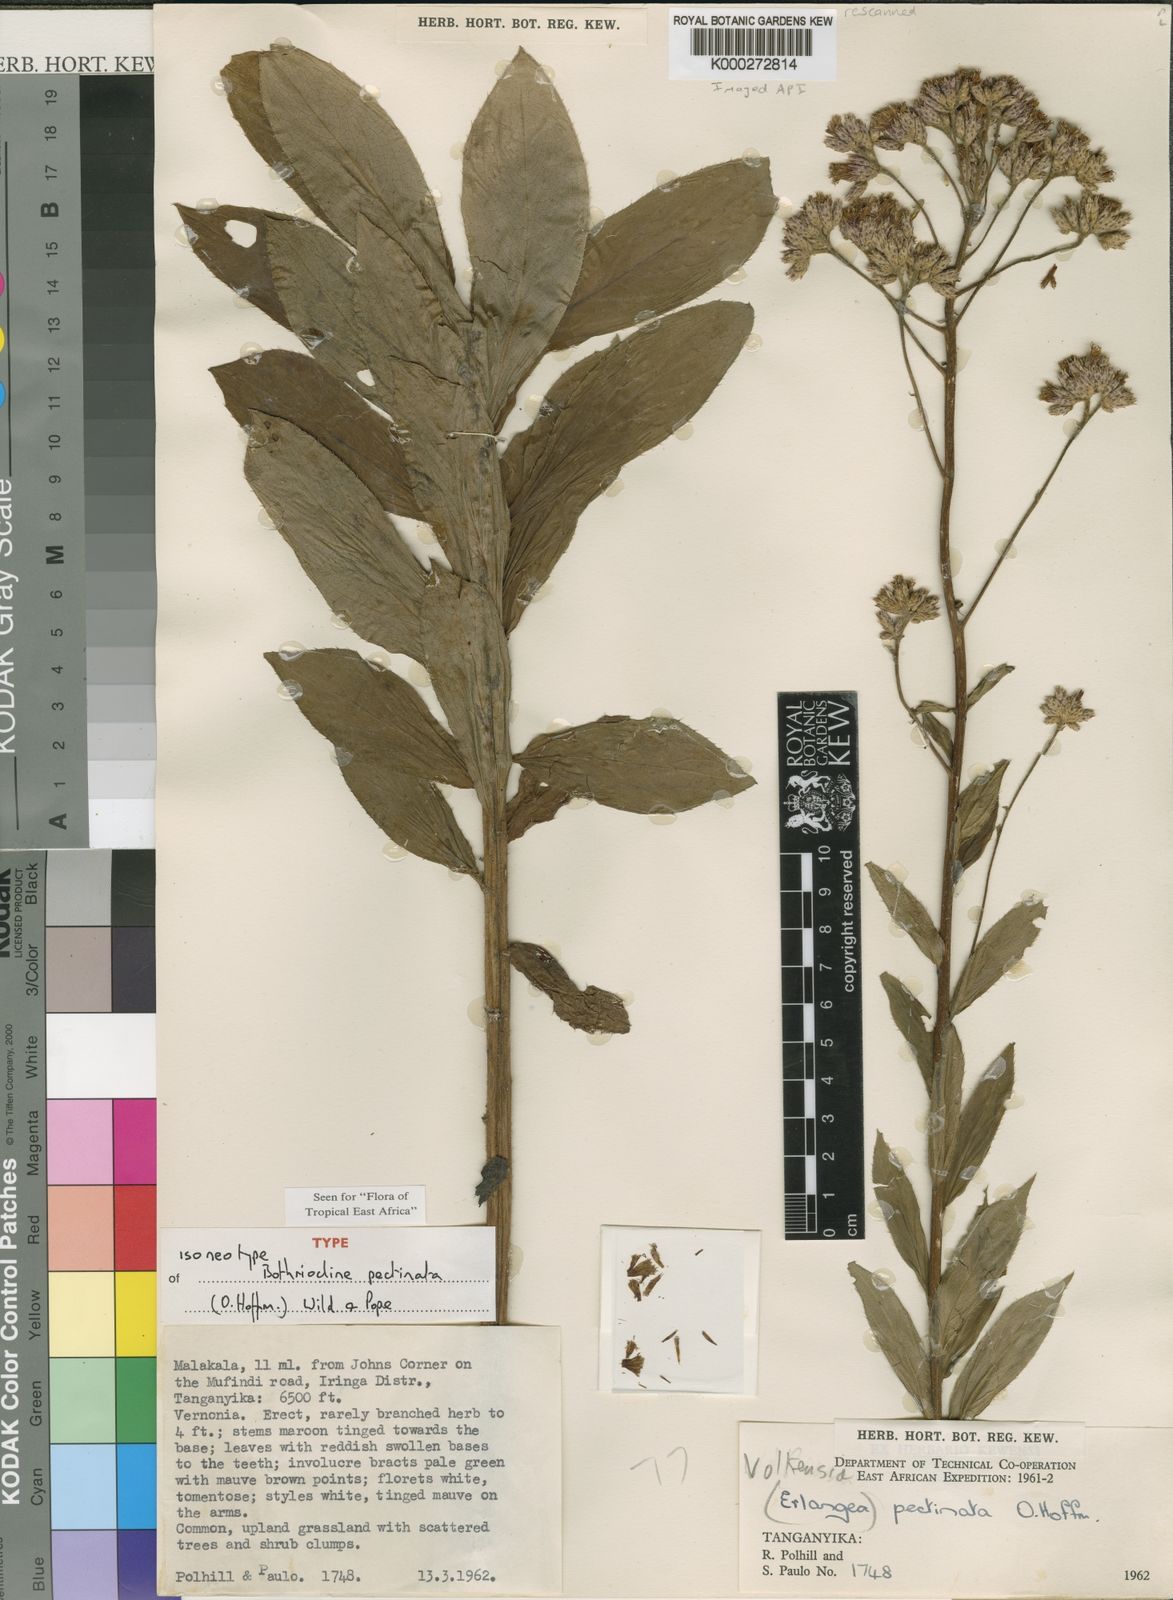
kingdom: Plantae
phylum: Tracheophyta
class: Magnoliopsida
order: Asterales
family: Asteraceae
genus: Bothriocline
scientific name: Bothriocline ethulioides
